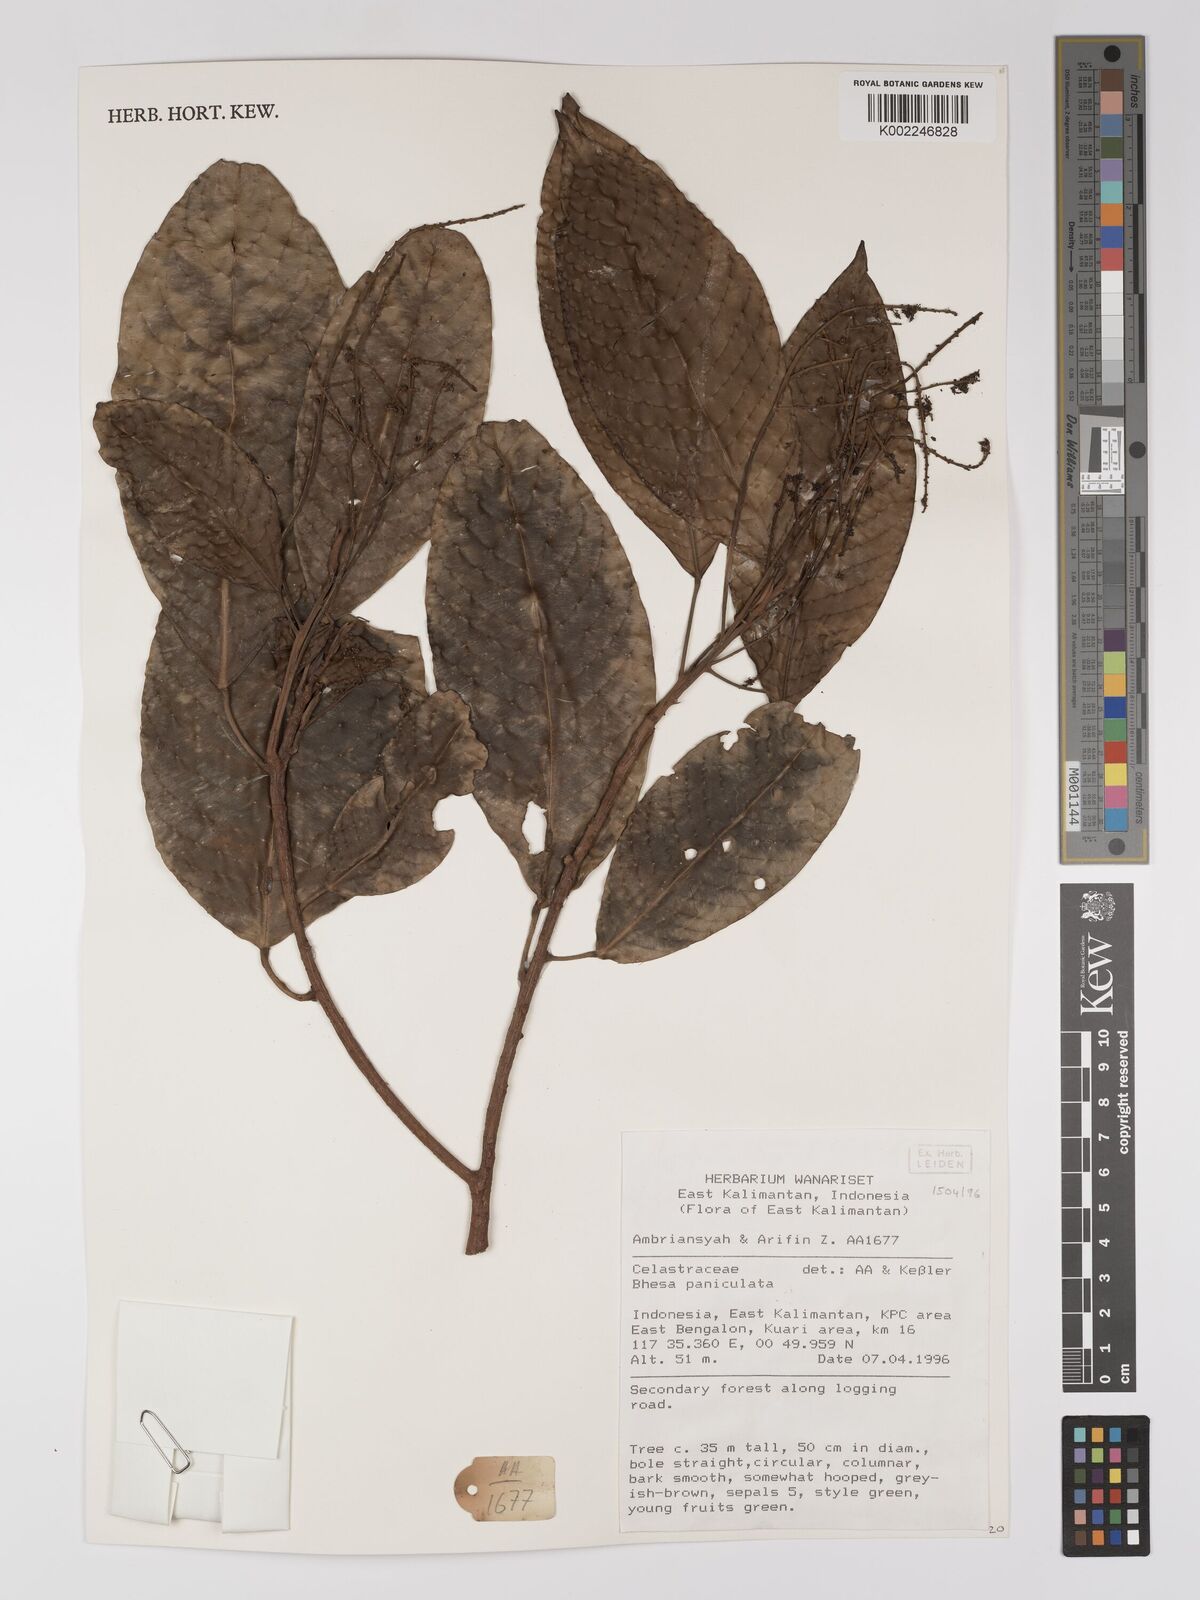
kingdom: Plantae
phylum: Tracheophyta
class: Magnoliopsida
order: Malpighiales
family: Centroplacaceae
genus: Bhesa
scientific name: Bhesa paniculata
